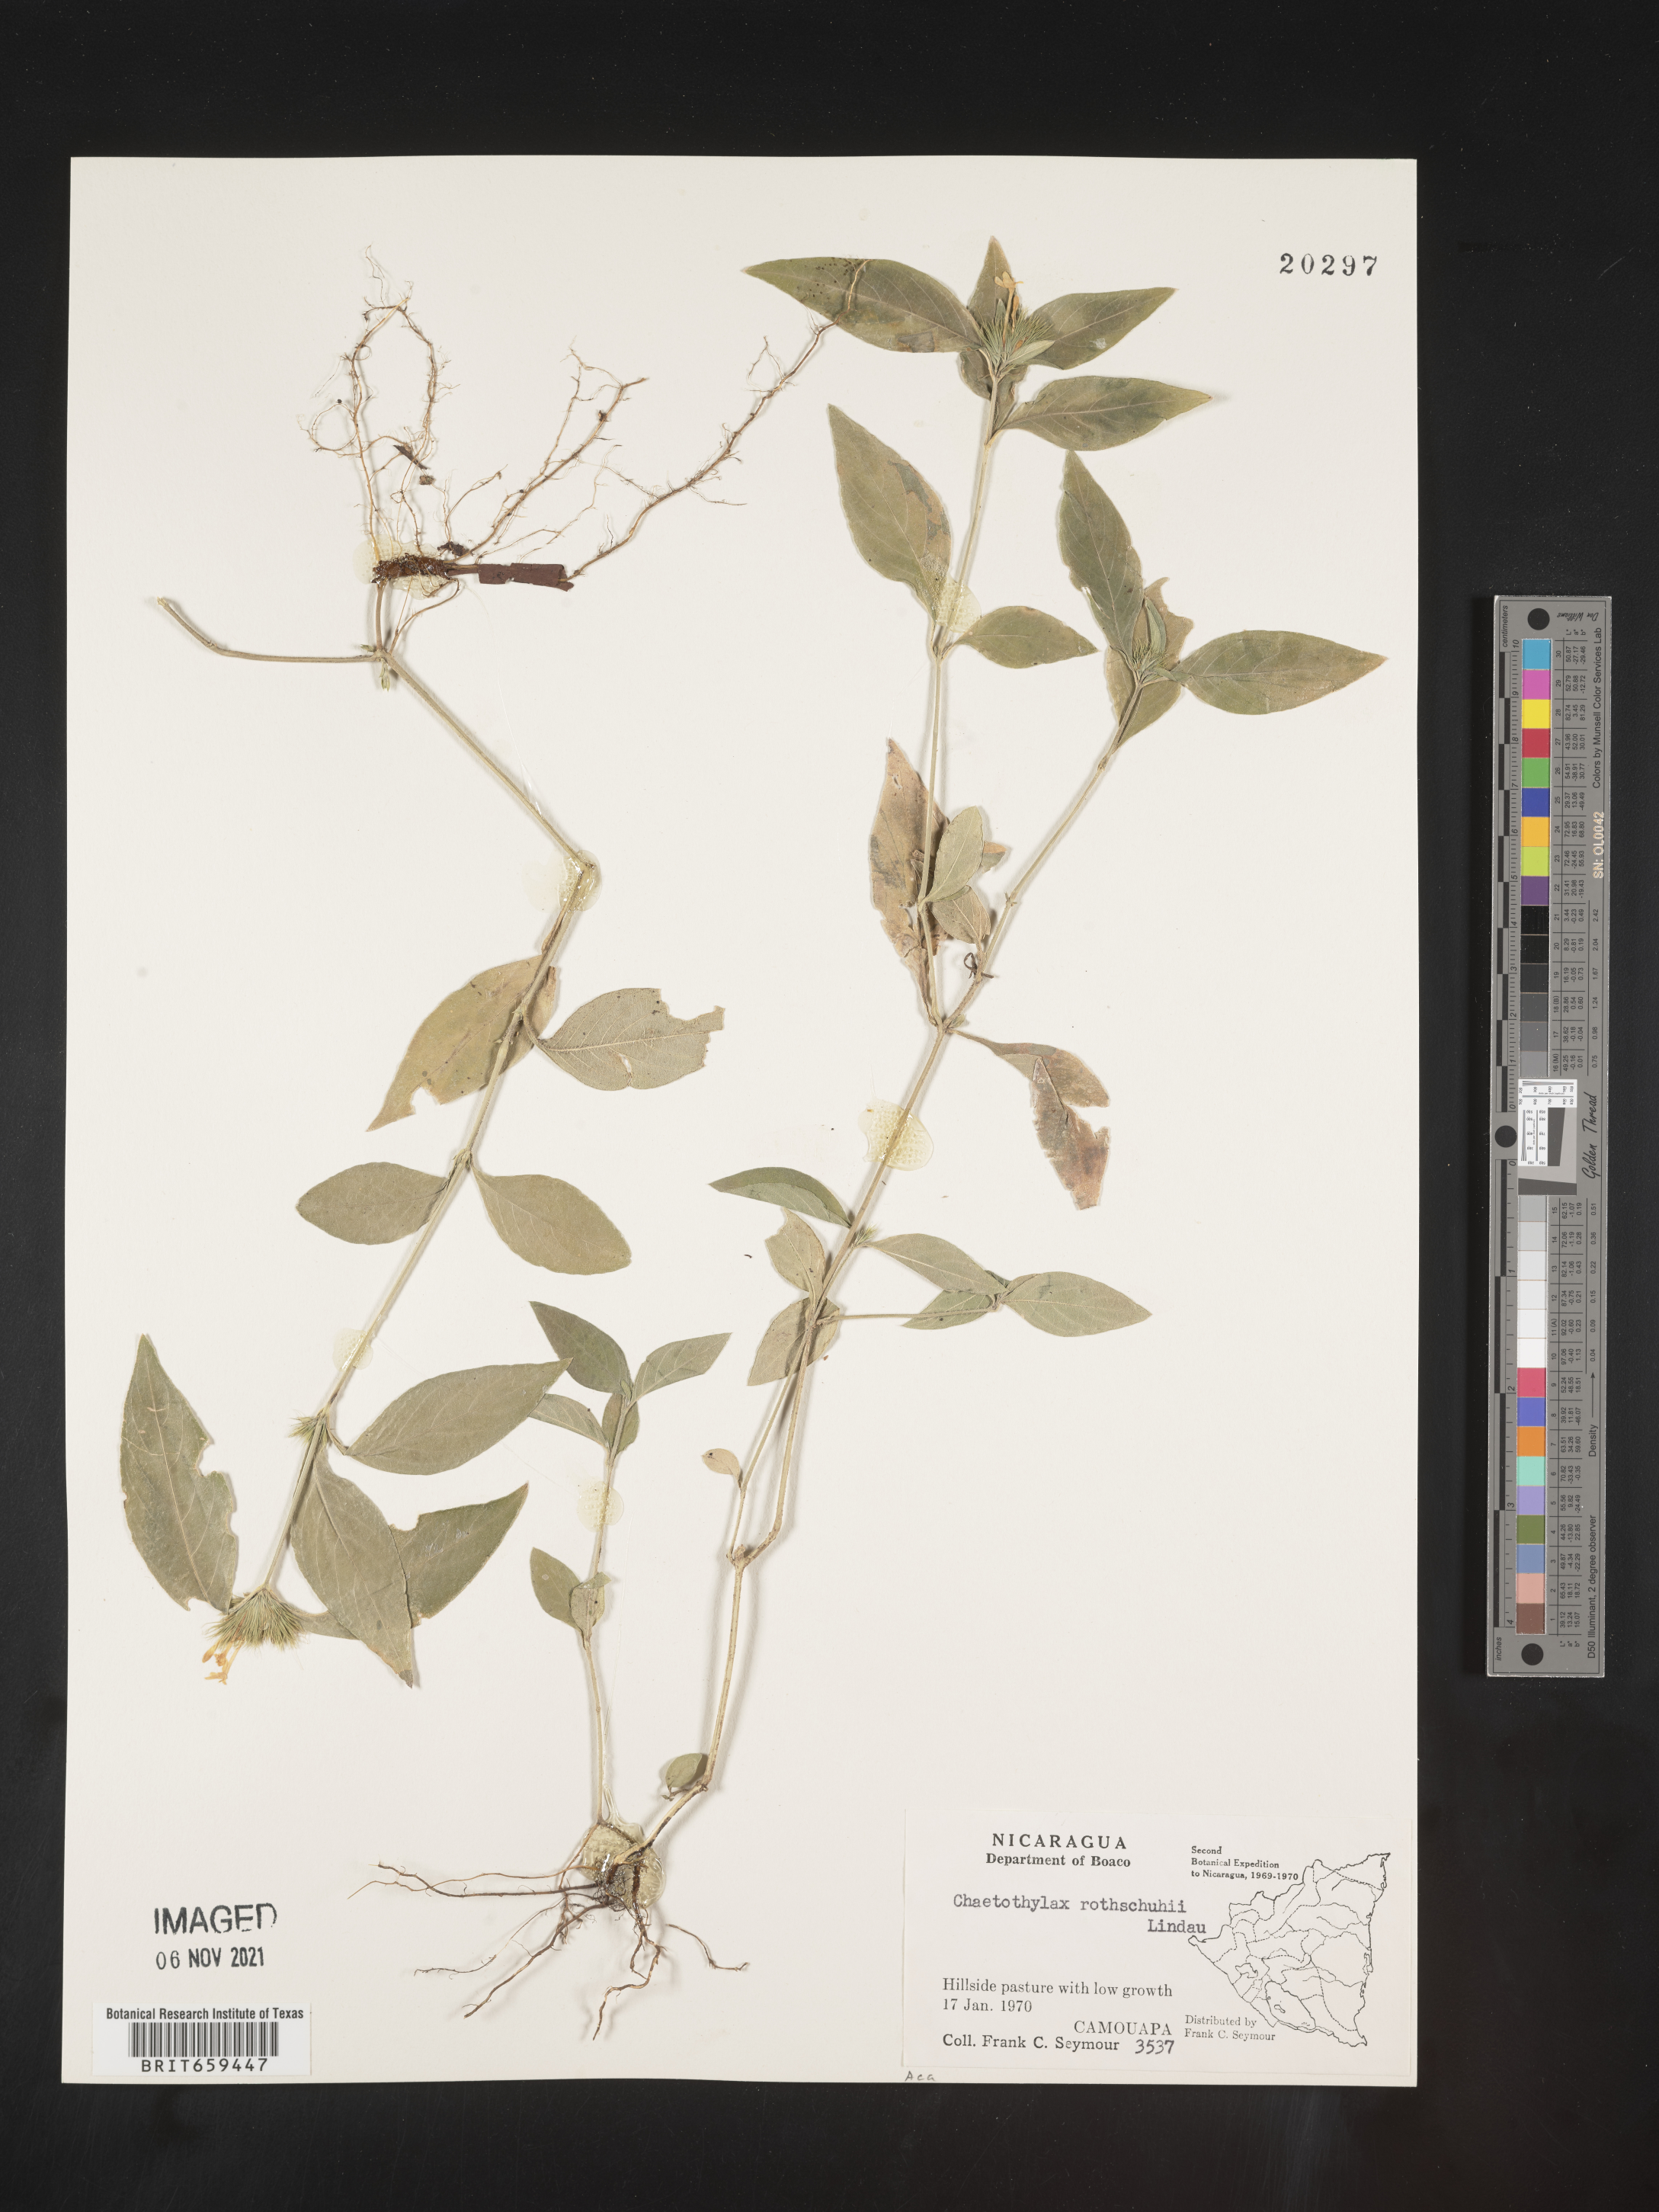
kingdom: Plantae
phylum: Tracheophyta
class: Magnoliopsida
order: Lamiales
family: Acanthaceae
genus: Justicia
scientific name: Justicia
